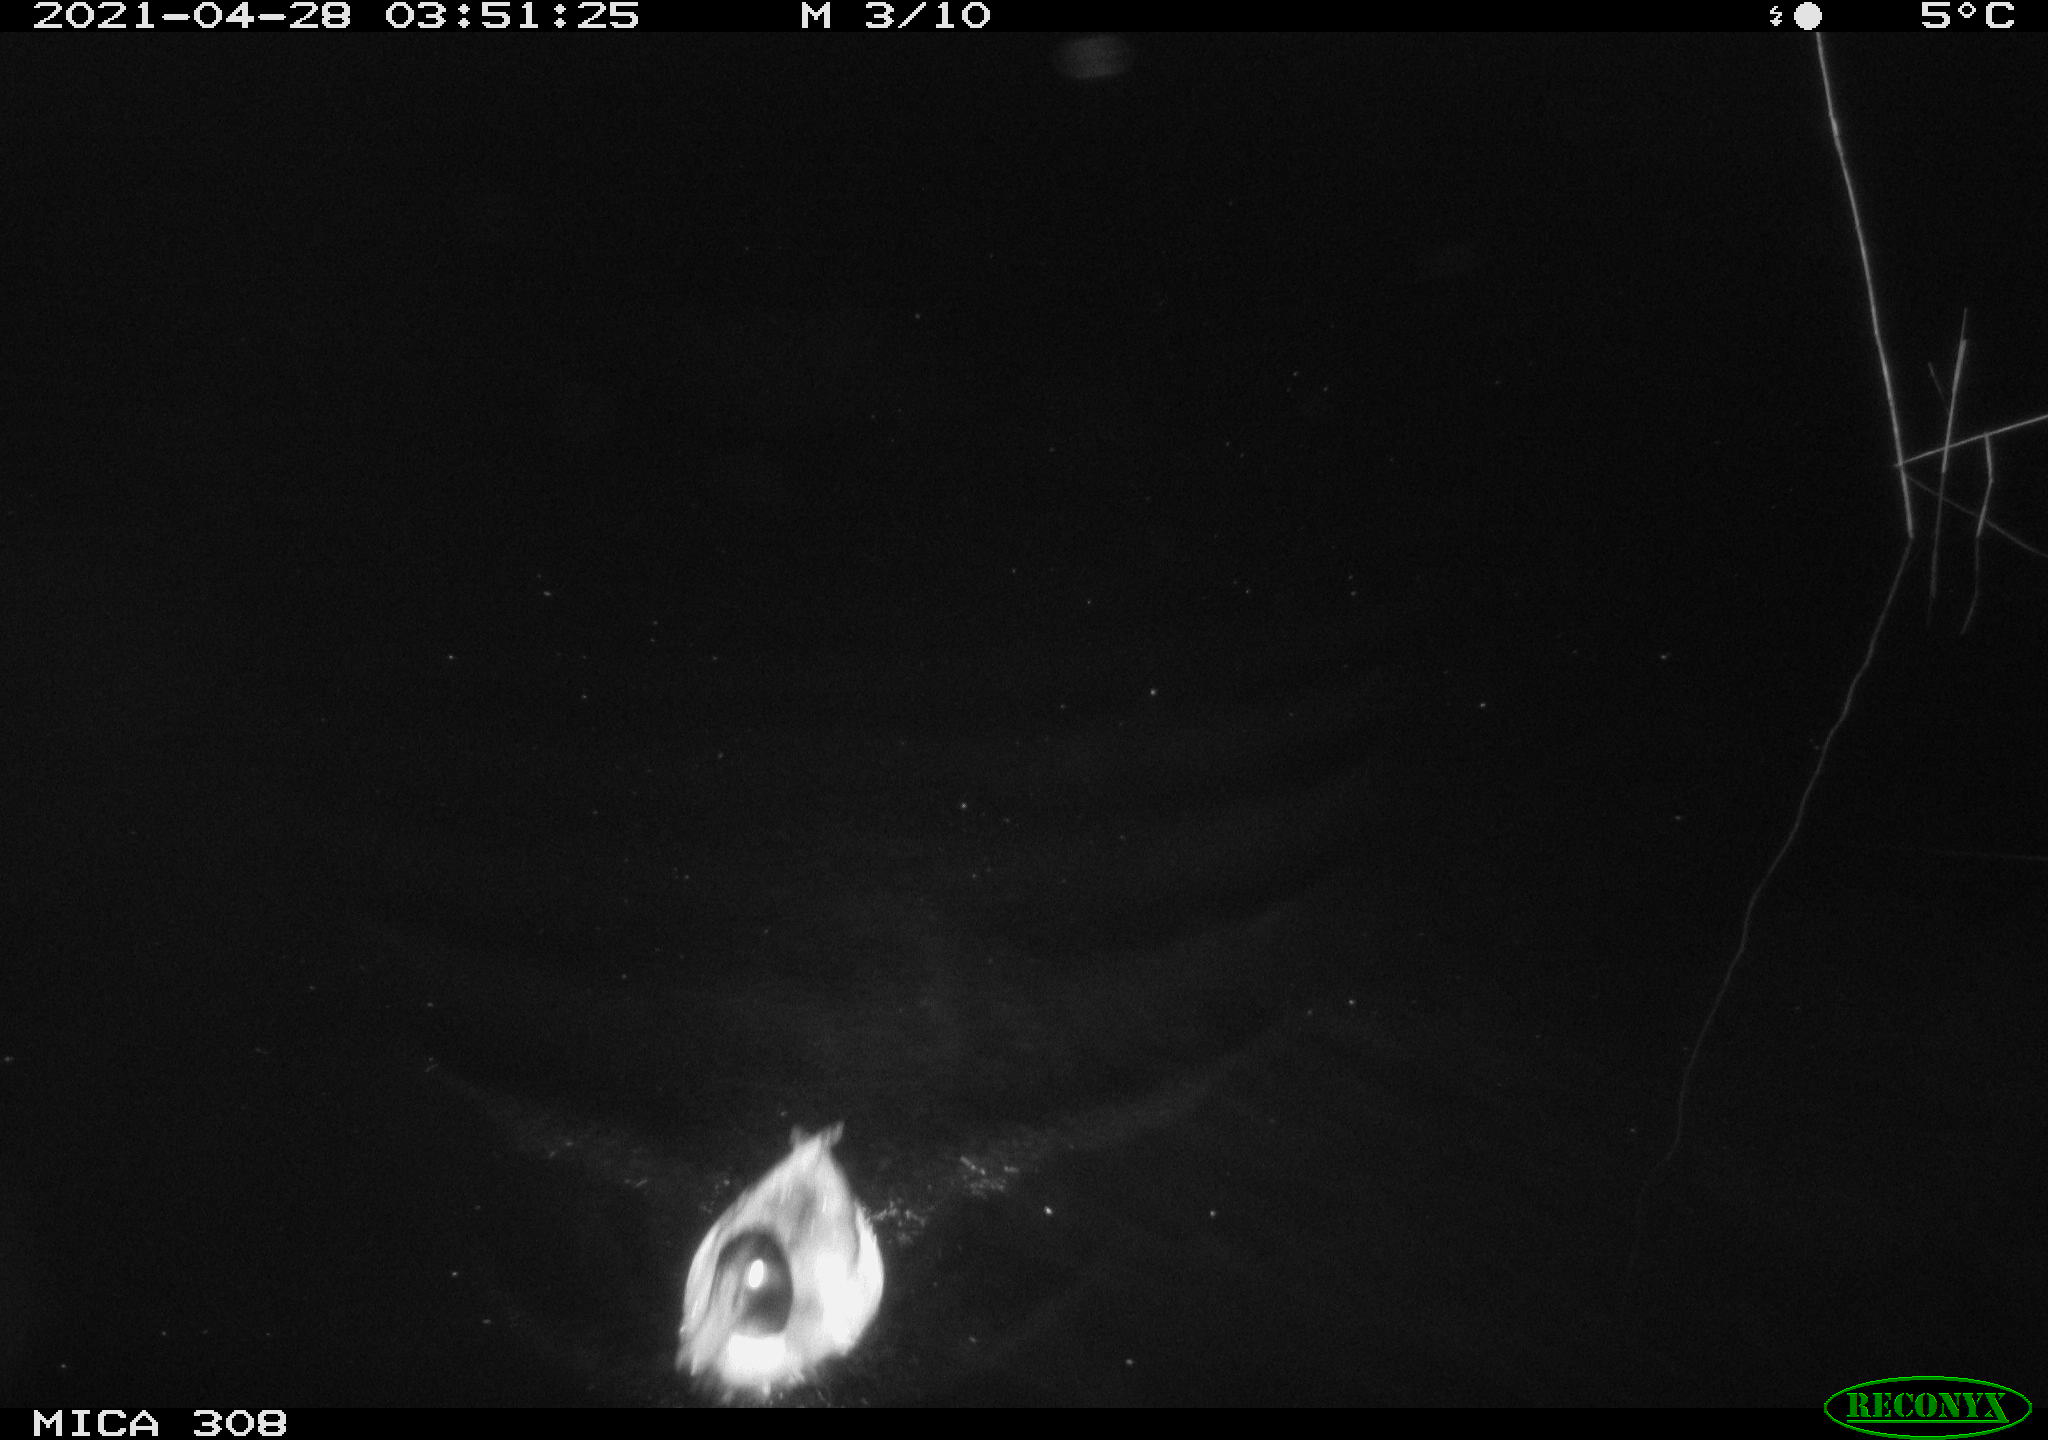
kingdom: Animalia
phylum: Chordata
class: Aves
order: Anseriformes
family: Anatidae
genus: Anas
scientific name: Anas platyrhynchos
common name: Mallard
